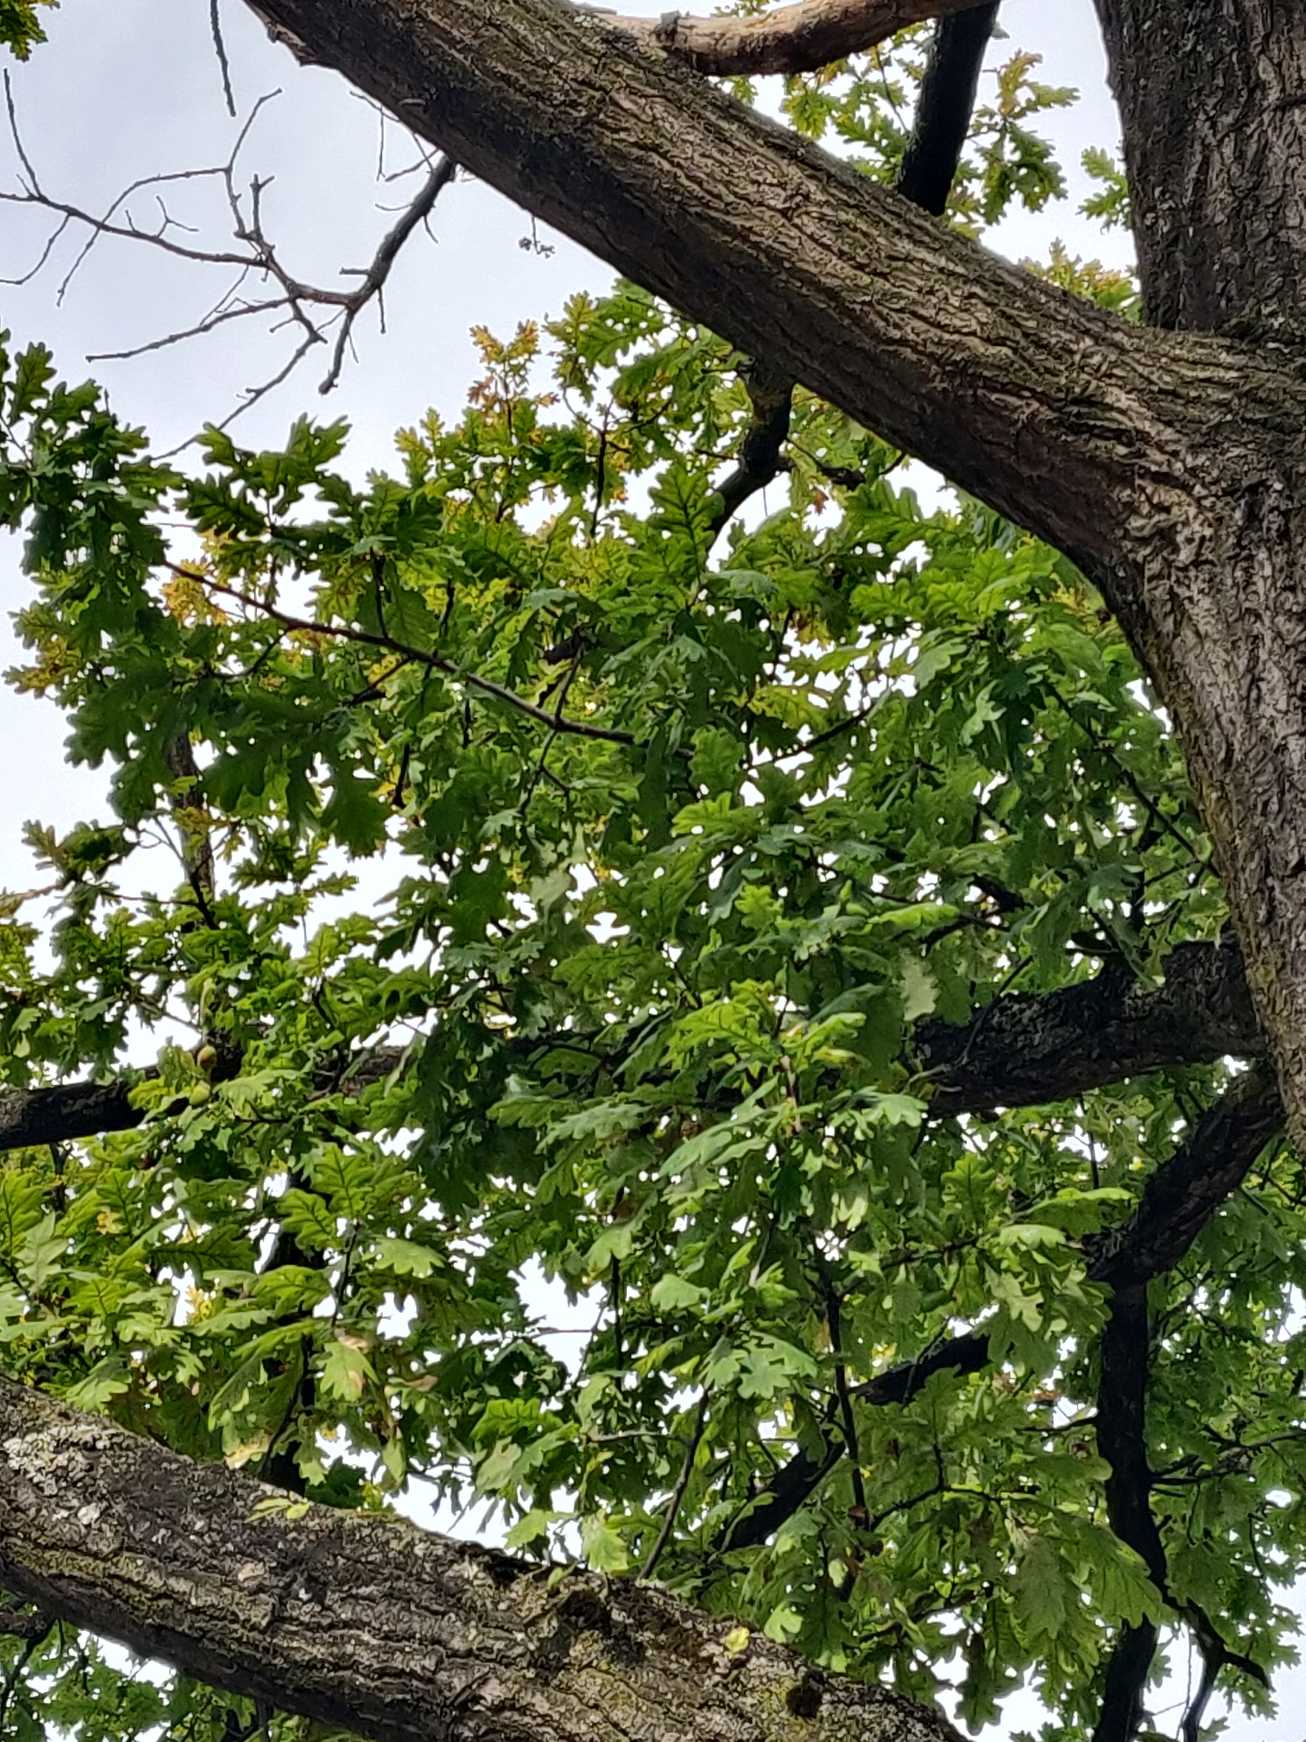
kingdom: Plantae
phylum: Tracheophyta
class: Magnoliopsida
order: Fagales
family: Fagaceae
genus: Quercus
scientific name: Quercus robur
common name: Stilk-eg/almindelig eg
